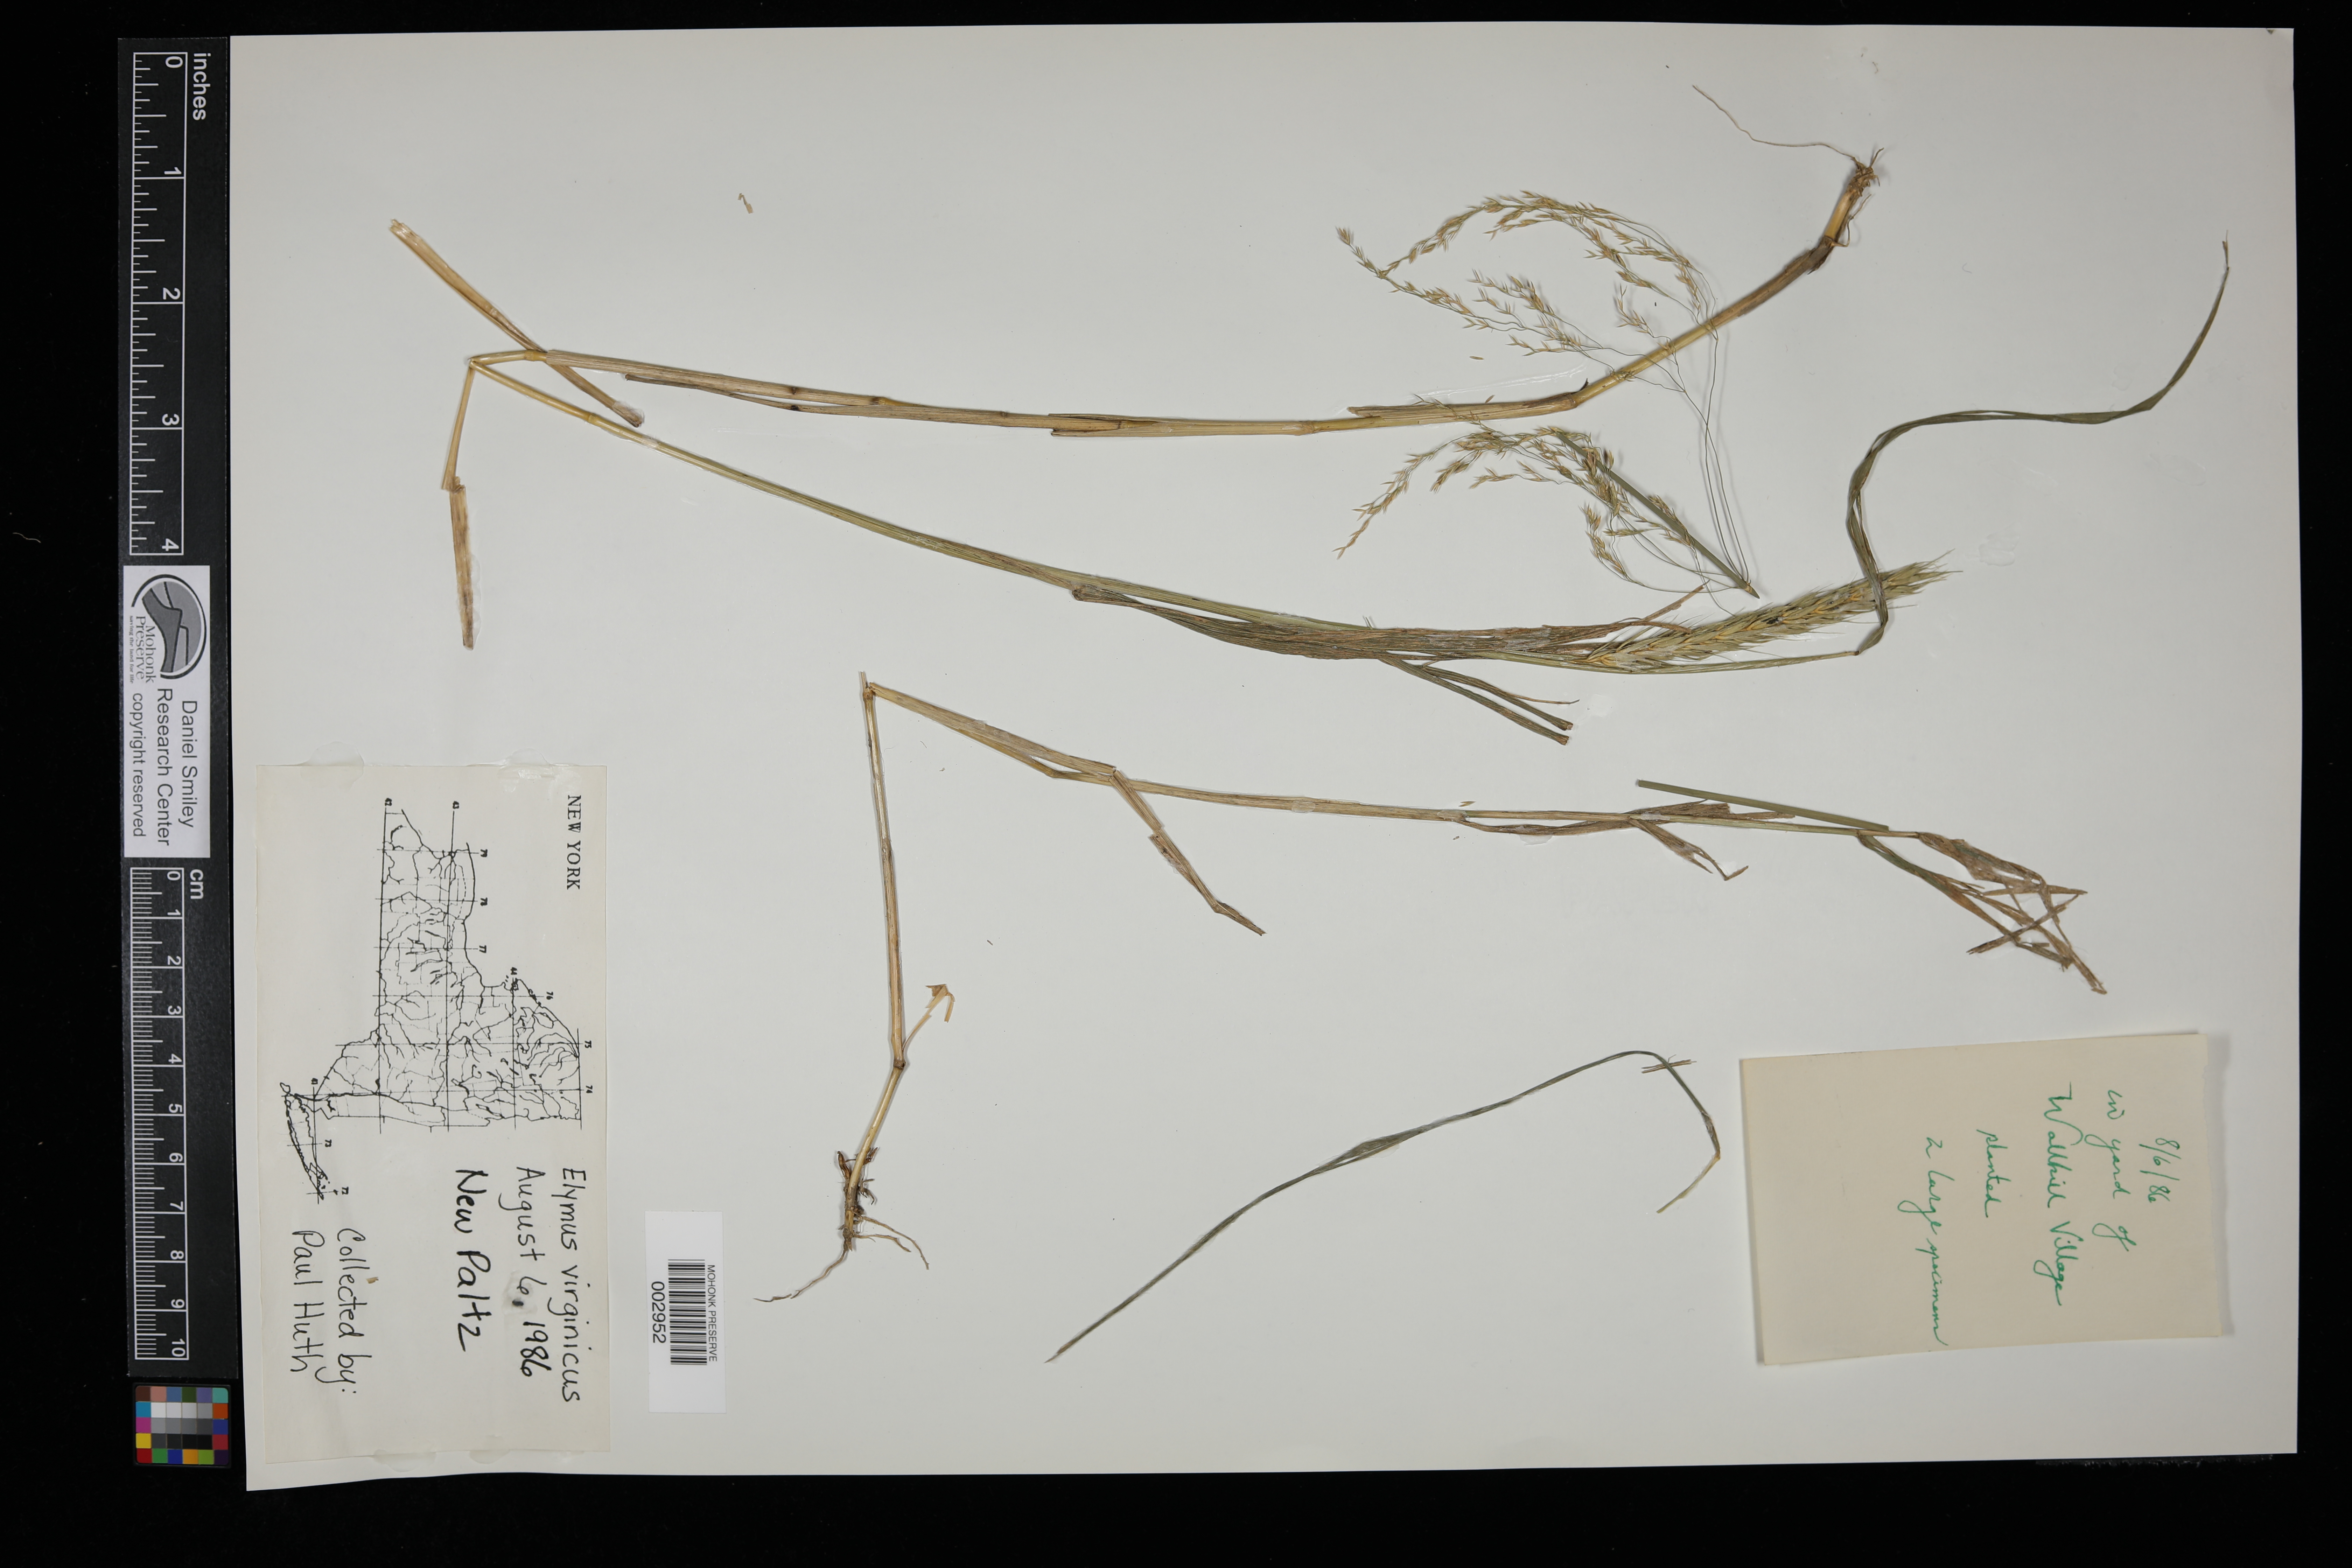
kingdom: Plantae
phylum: Tracheophyta
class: Liliopsida
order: Poales
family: Poaceae
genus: Elymus
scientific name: Elymus virginicus
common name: Common eastern wildrye
